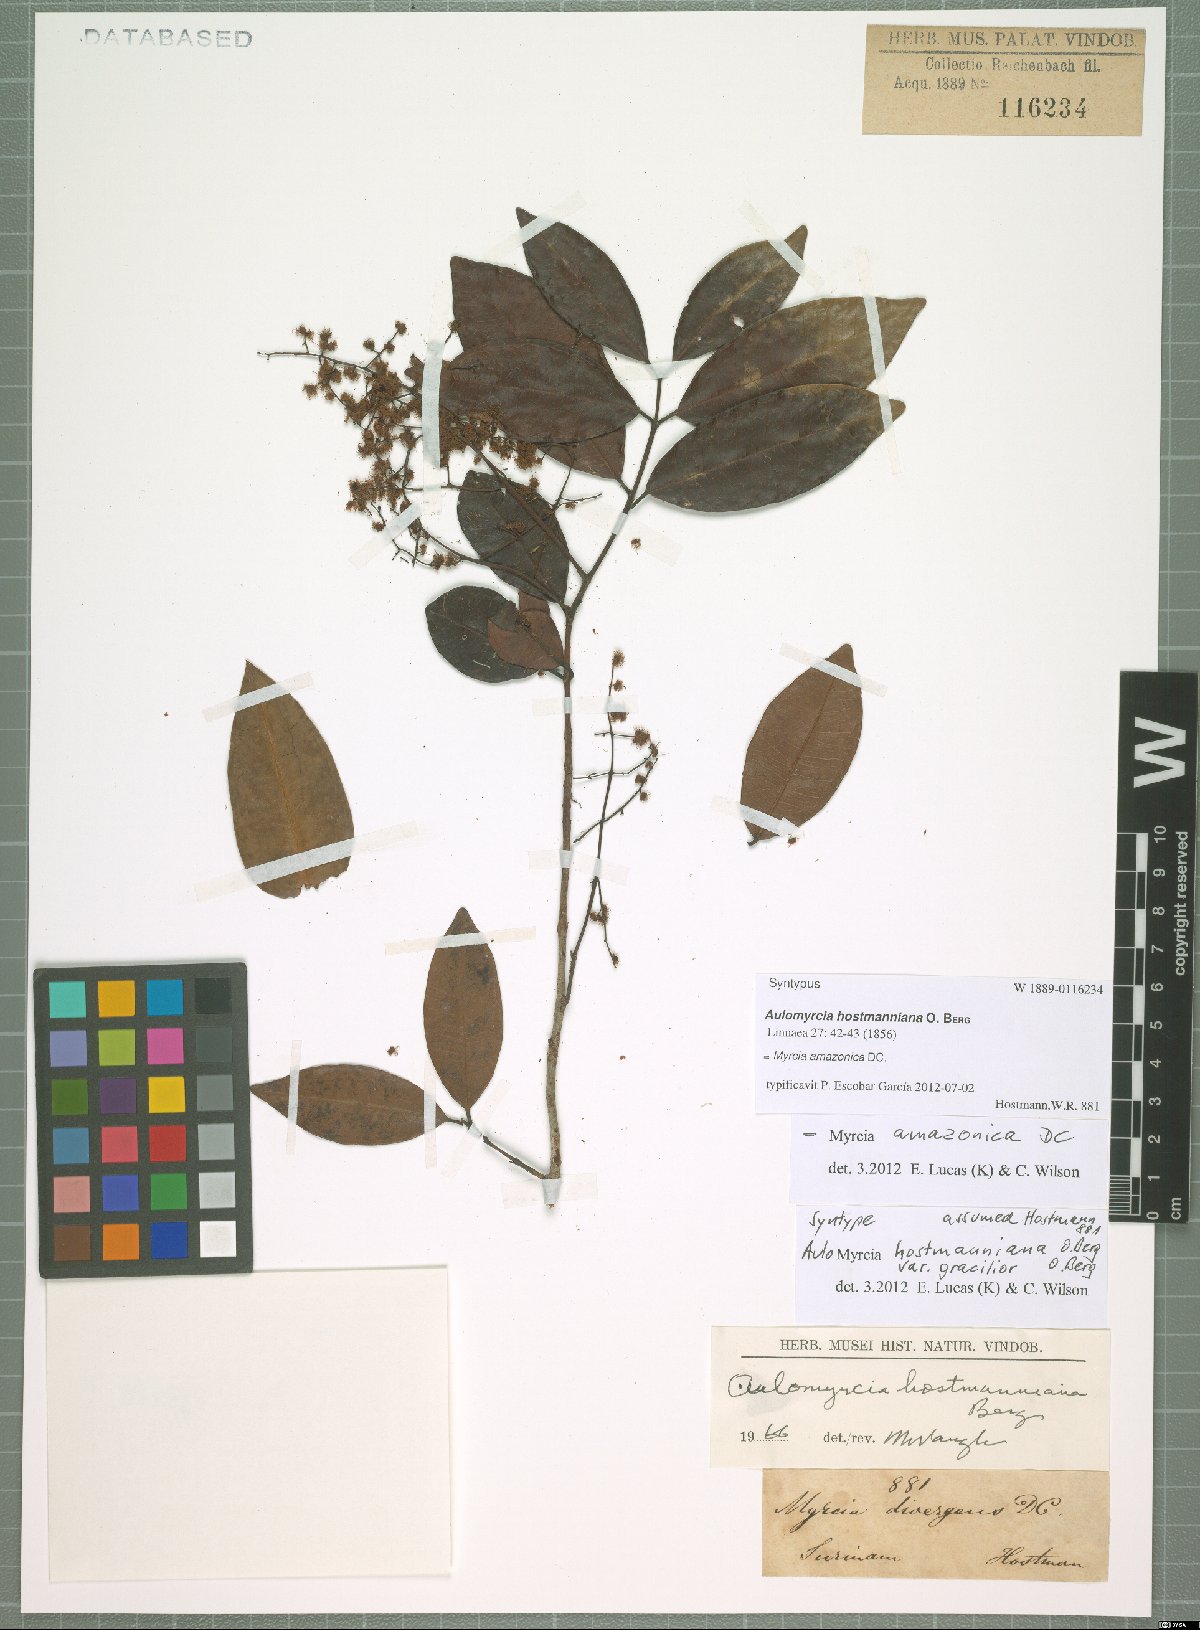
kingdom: Plantae
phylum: Tracheophyta
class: Magnoliopsida
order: Myrtales
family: Myrtaceae
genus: Myrcia
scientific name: Myrcia amazonica
